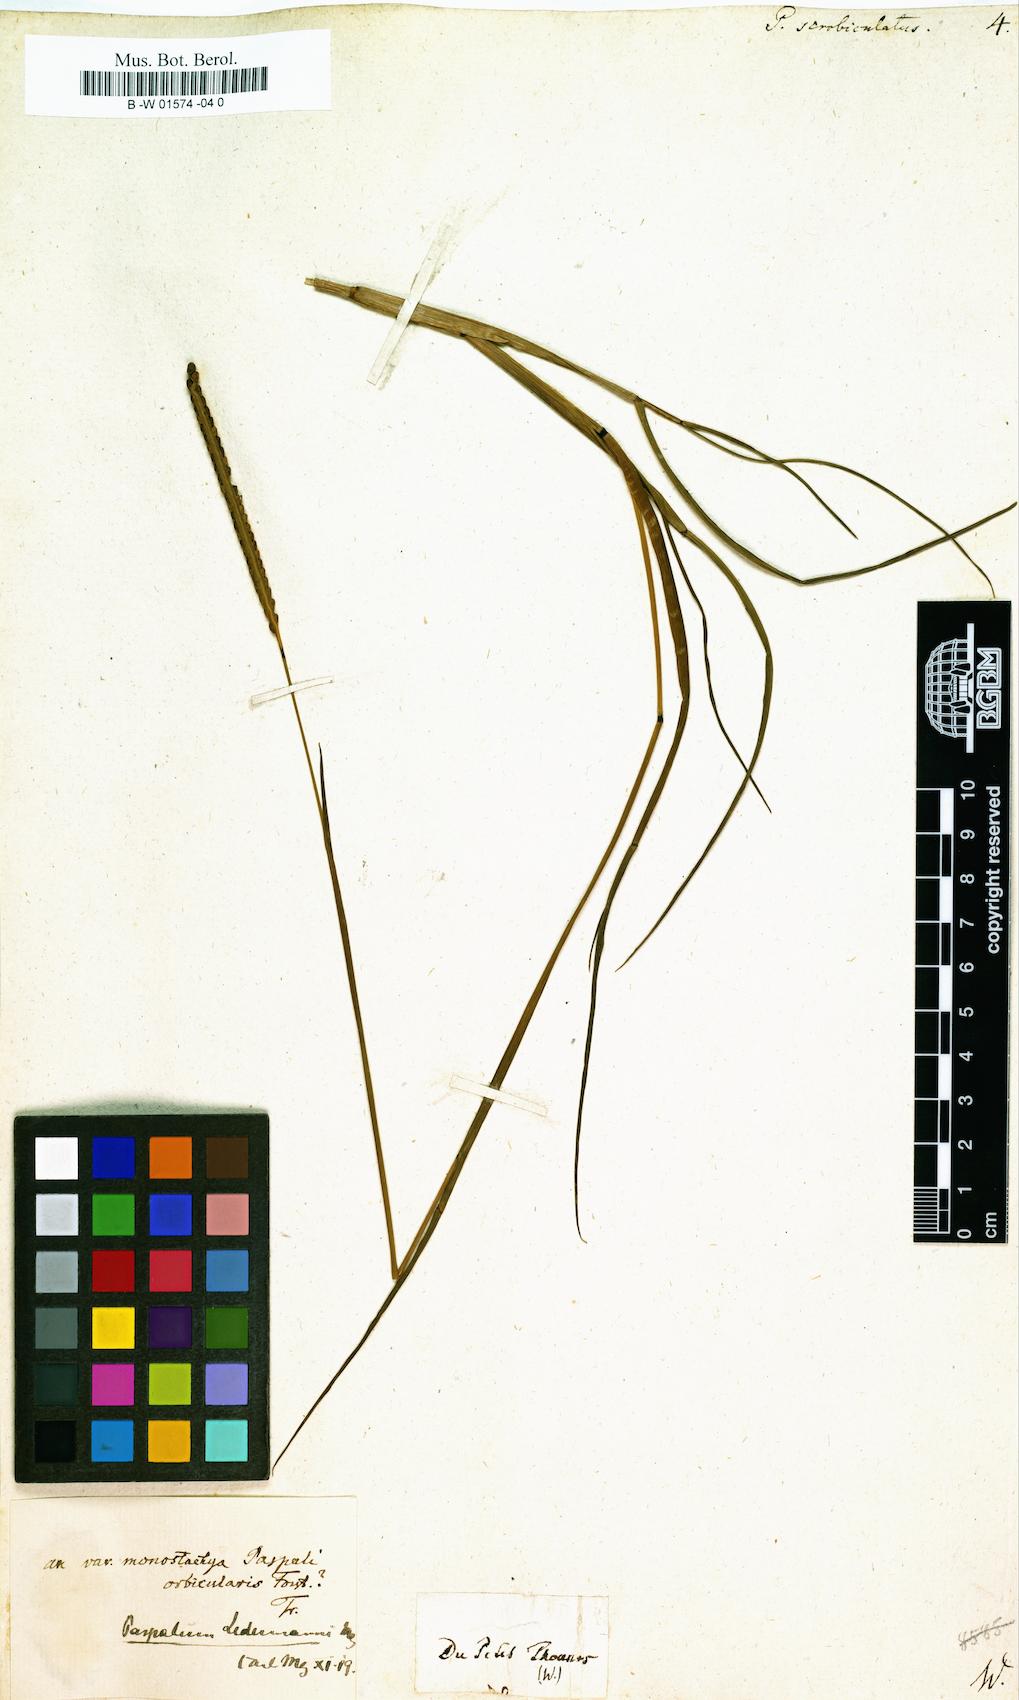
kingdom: Plantae
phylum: Tracheophyta
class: Liliopsida
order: Poales
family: Poaceae
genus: Paspalus
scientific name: Paspalus
